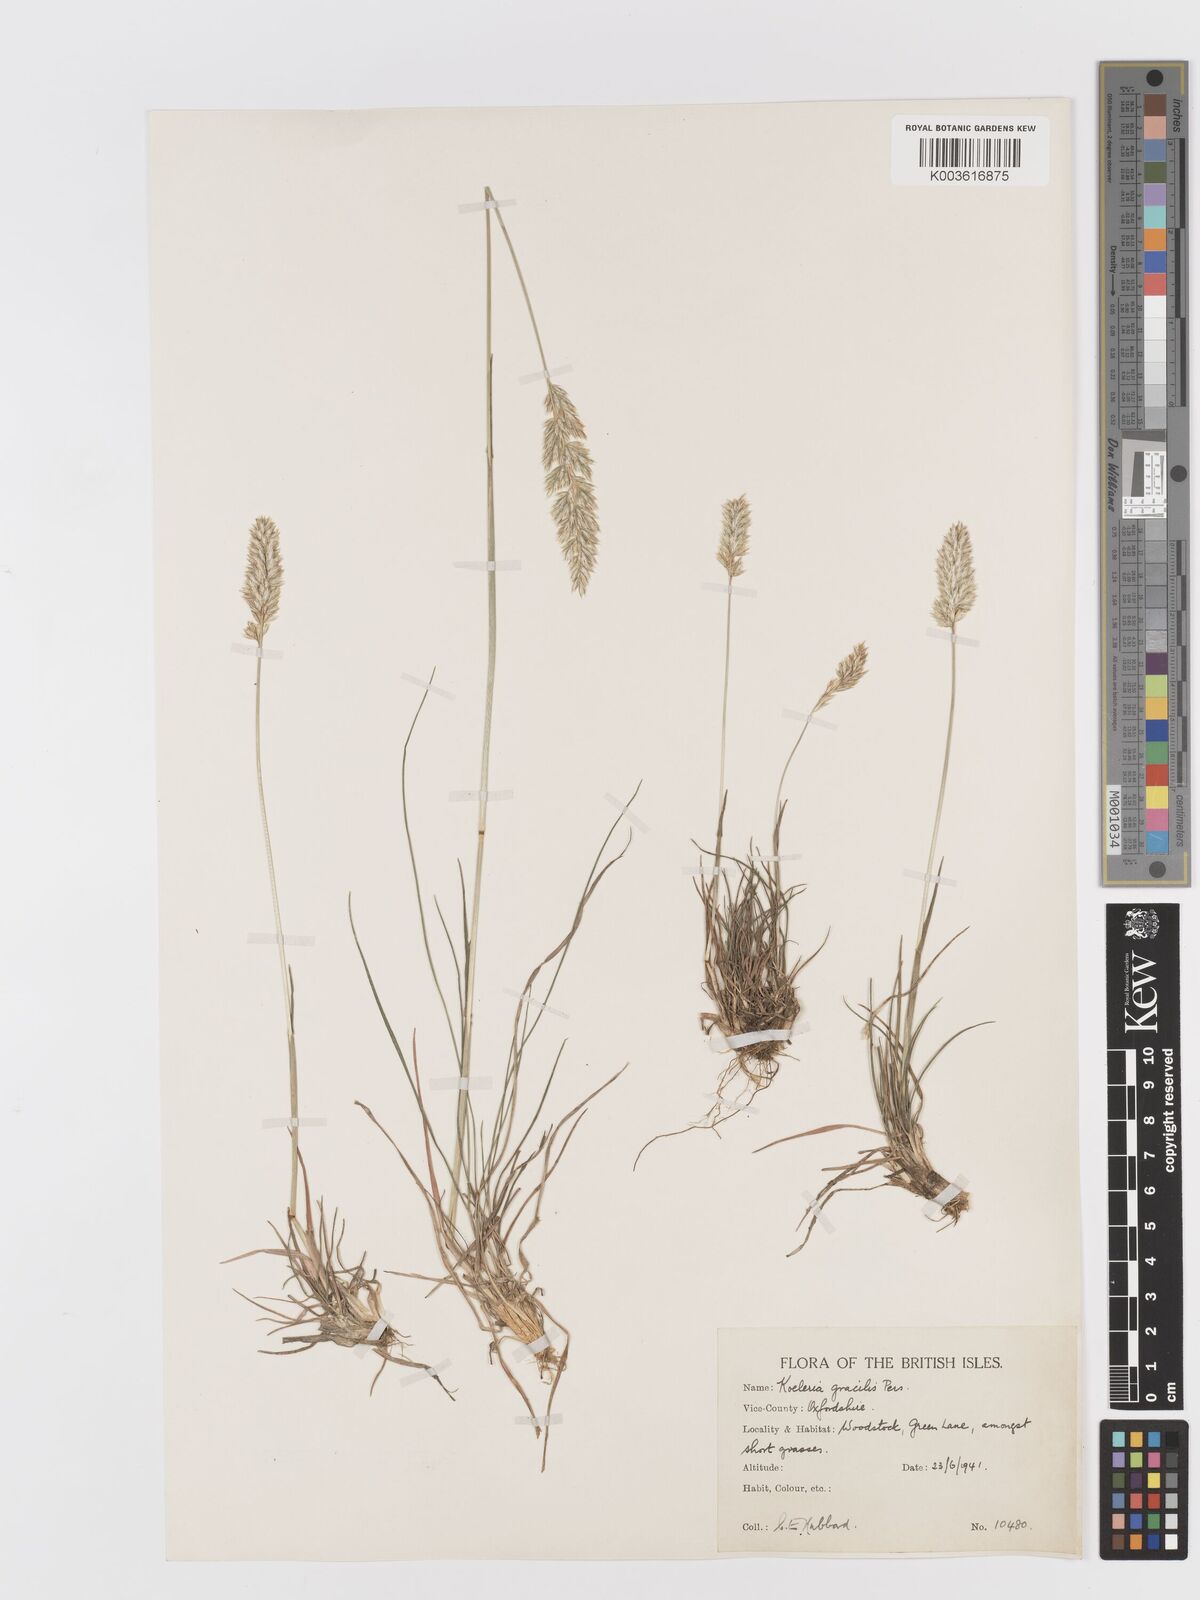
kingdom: Plantae
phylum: Tracheophyta
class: Liliopsida
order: Poales
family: Poaceae
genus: Koeleria
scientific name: Koeleria macrantha
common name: Crested hair-grass
